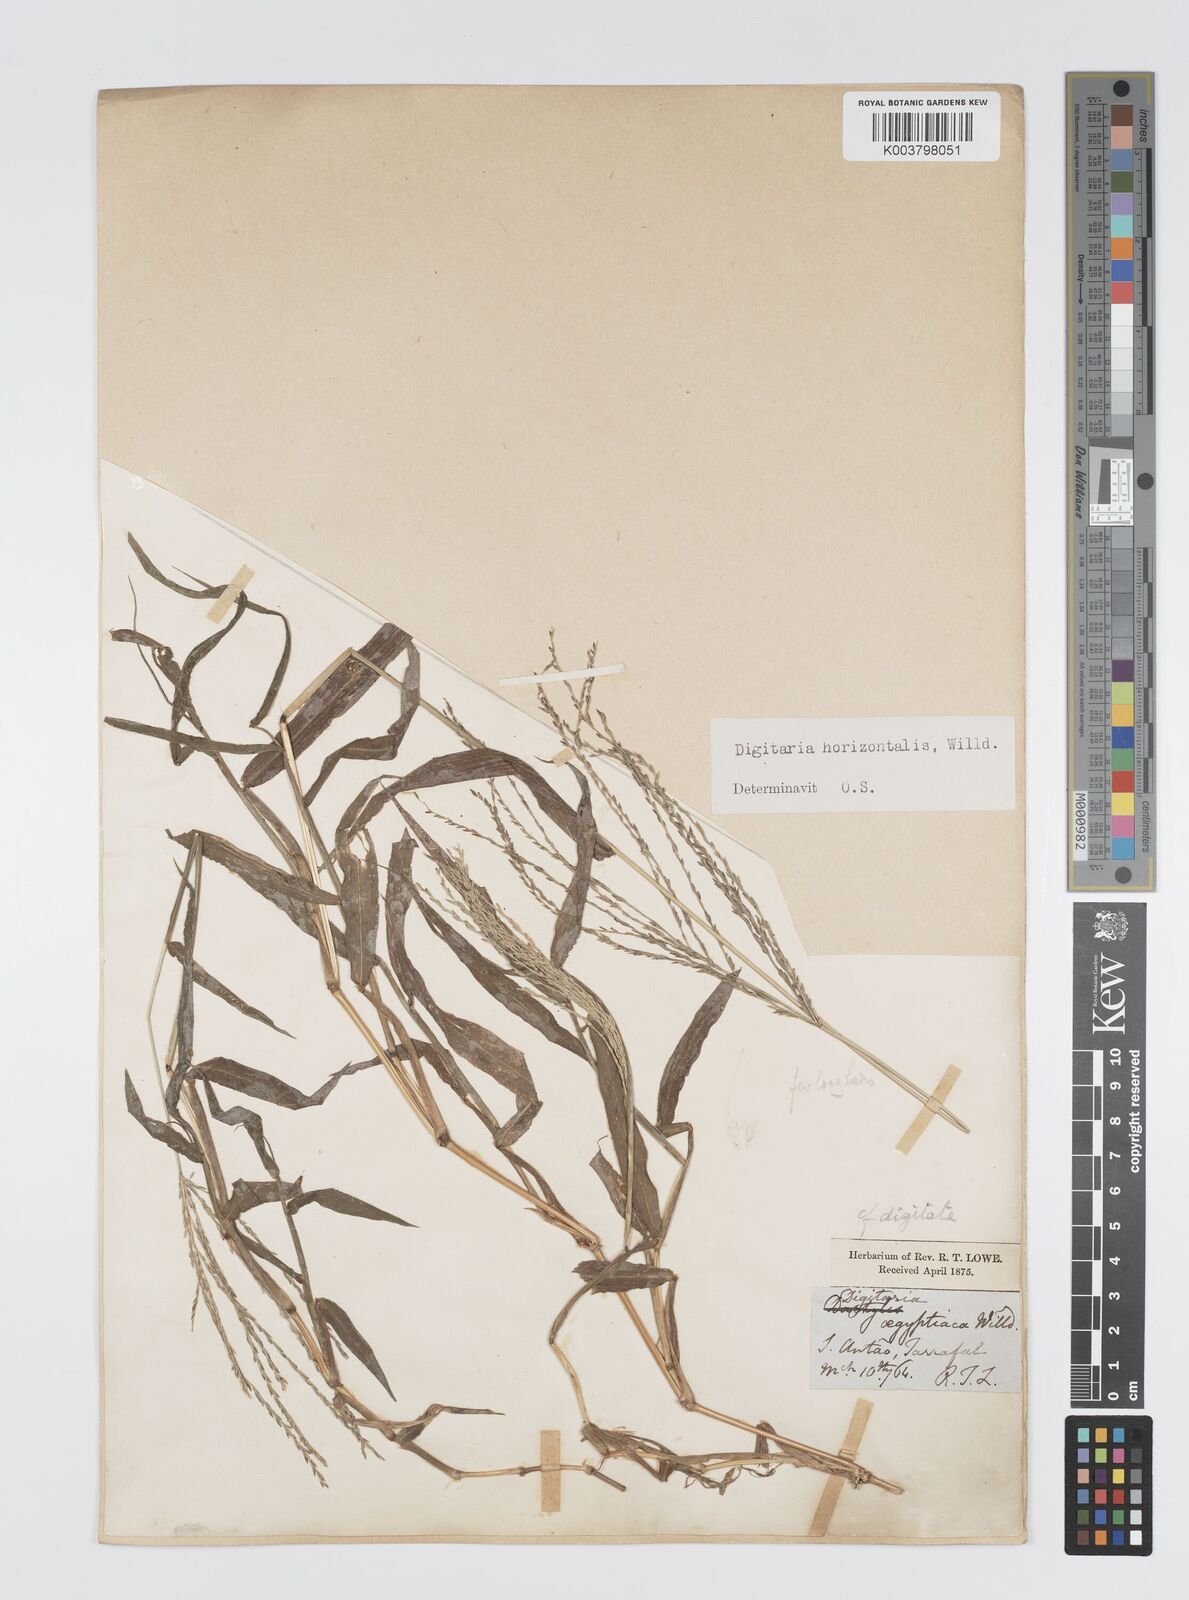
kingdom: Plantae
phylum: Tracheophyta
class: Liliopsida
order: Poales
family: Poaceae
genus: Digitaria
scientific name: Digitaria horizontalis
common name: Jamaican crabgrass
